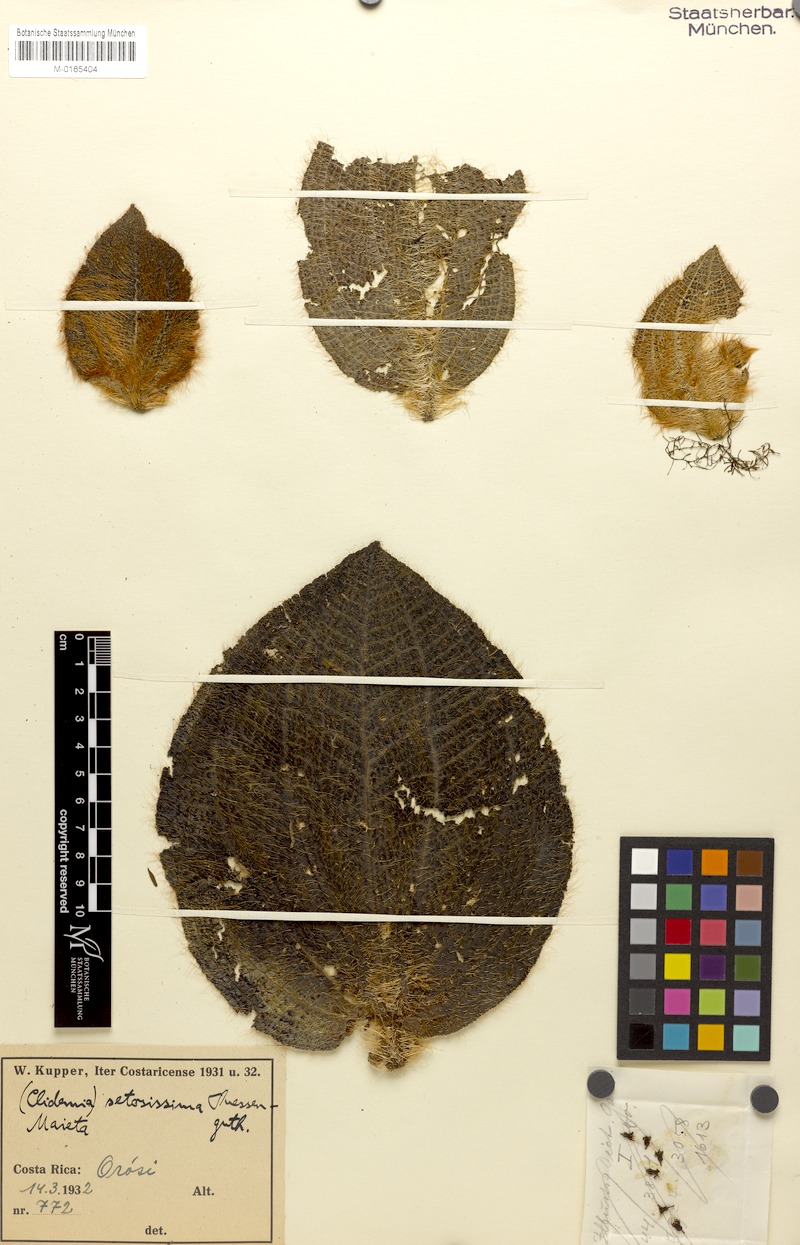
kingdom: Plantae
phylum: Tracheophyta
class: Magnoliopsida
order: Myrtales
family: Melastomataceae
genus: Miconia
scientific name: Miconia spectabilis
